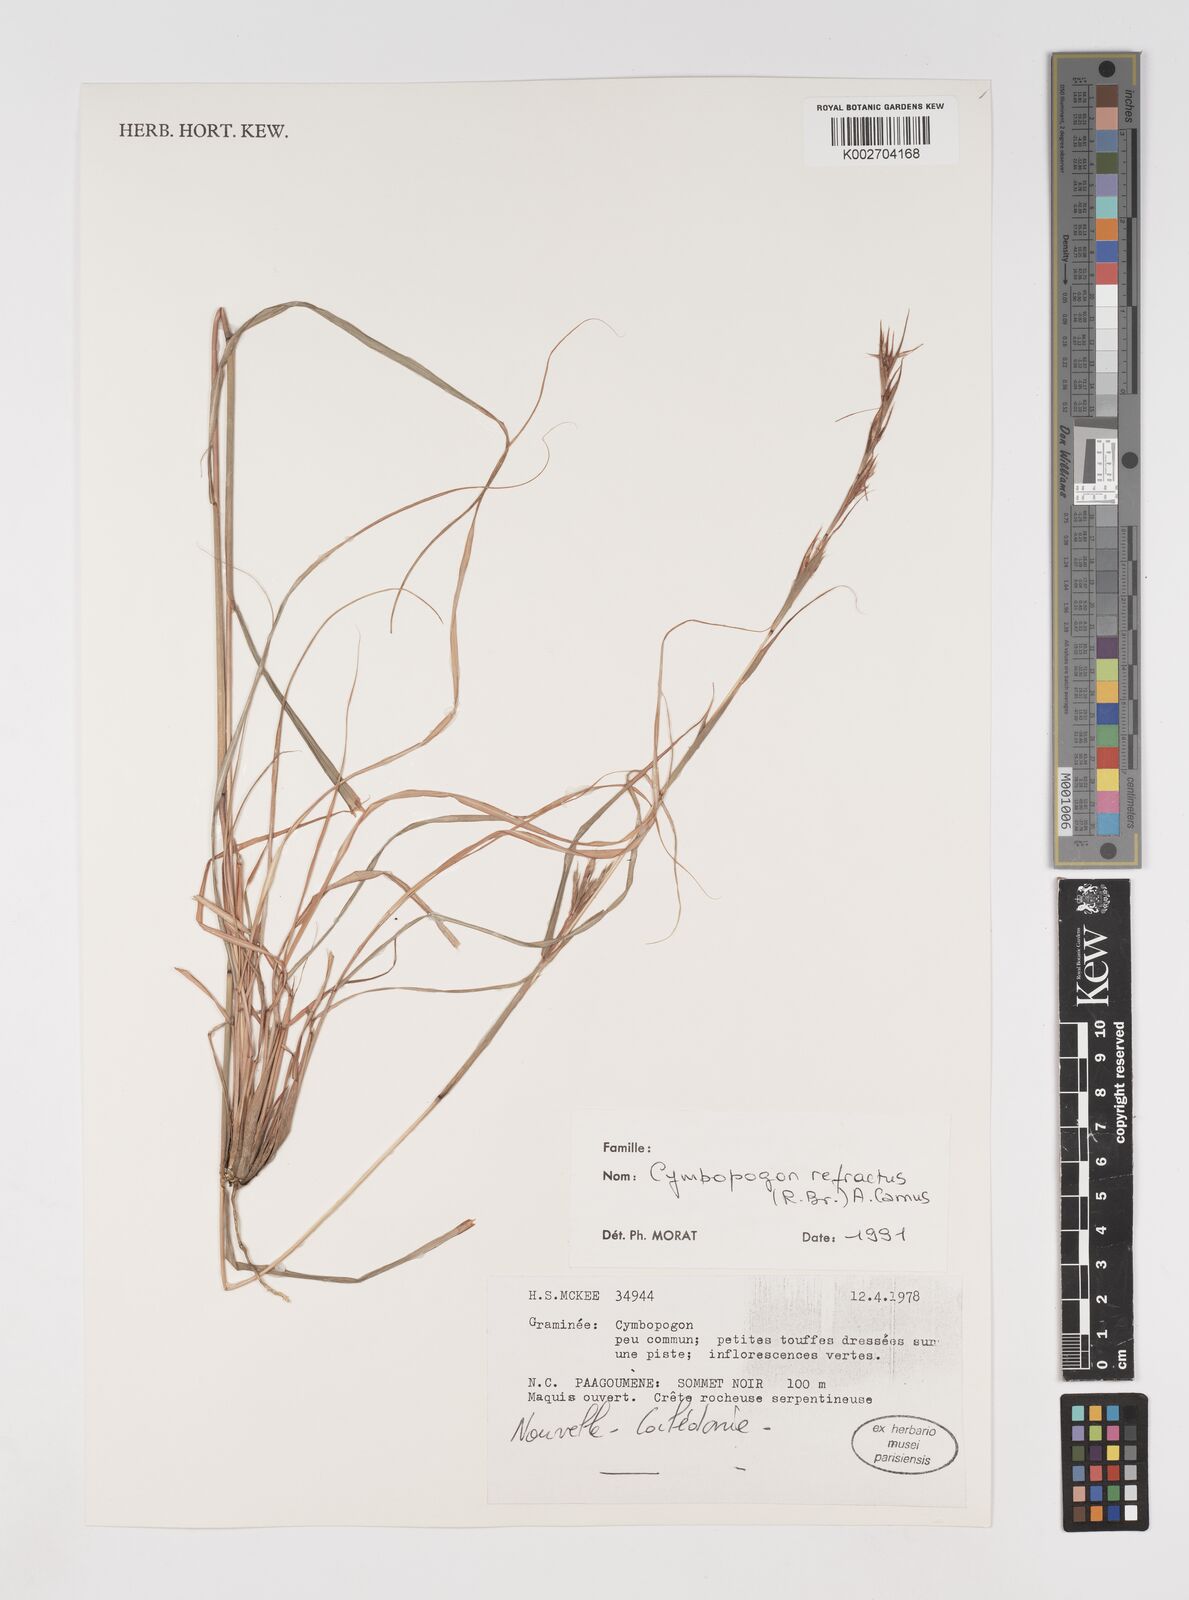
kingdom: Plantae
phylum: Tracheophyta
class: Liliopsida
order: Poales
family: Poaceae
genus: Cymbopogon
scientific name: Cymbopogon
